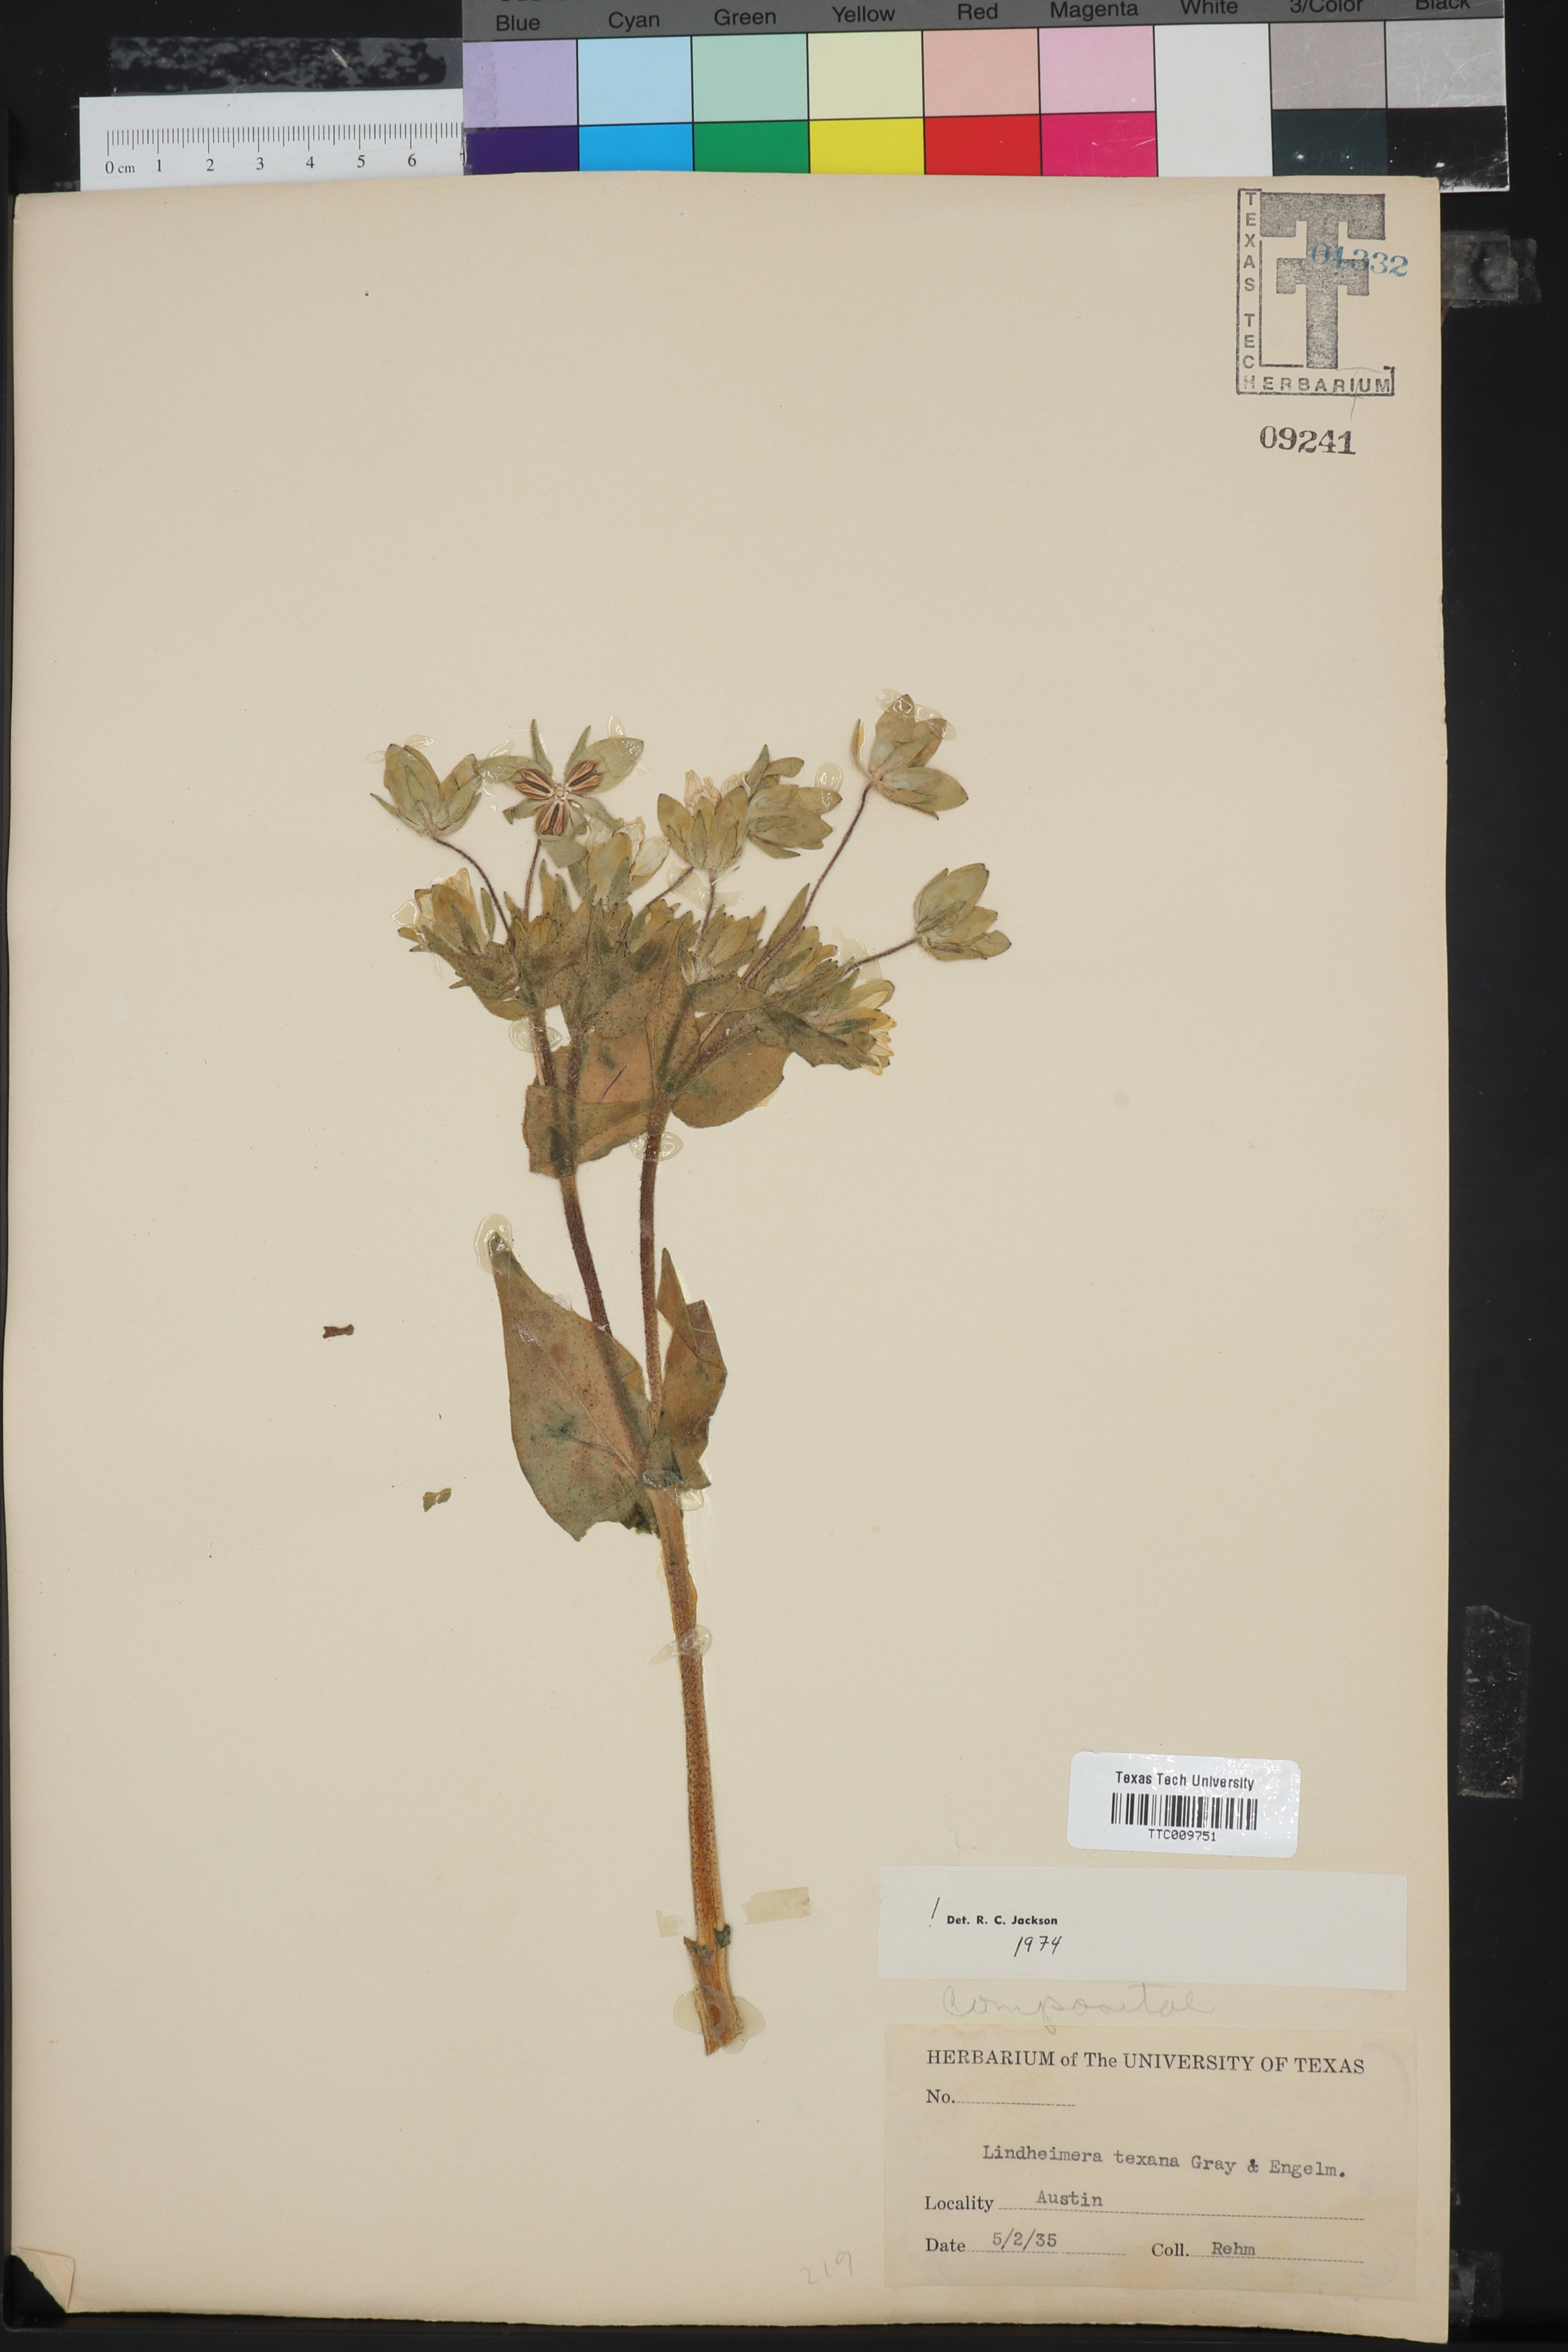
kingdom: Plantae
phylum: Tracheophyta
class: Magnoliopsida
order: Asterales
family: Asteraceae
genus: Lindheimera
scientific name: Lindheimera texana
